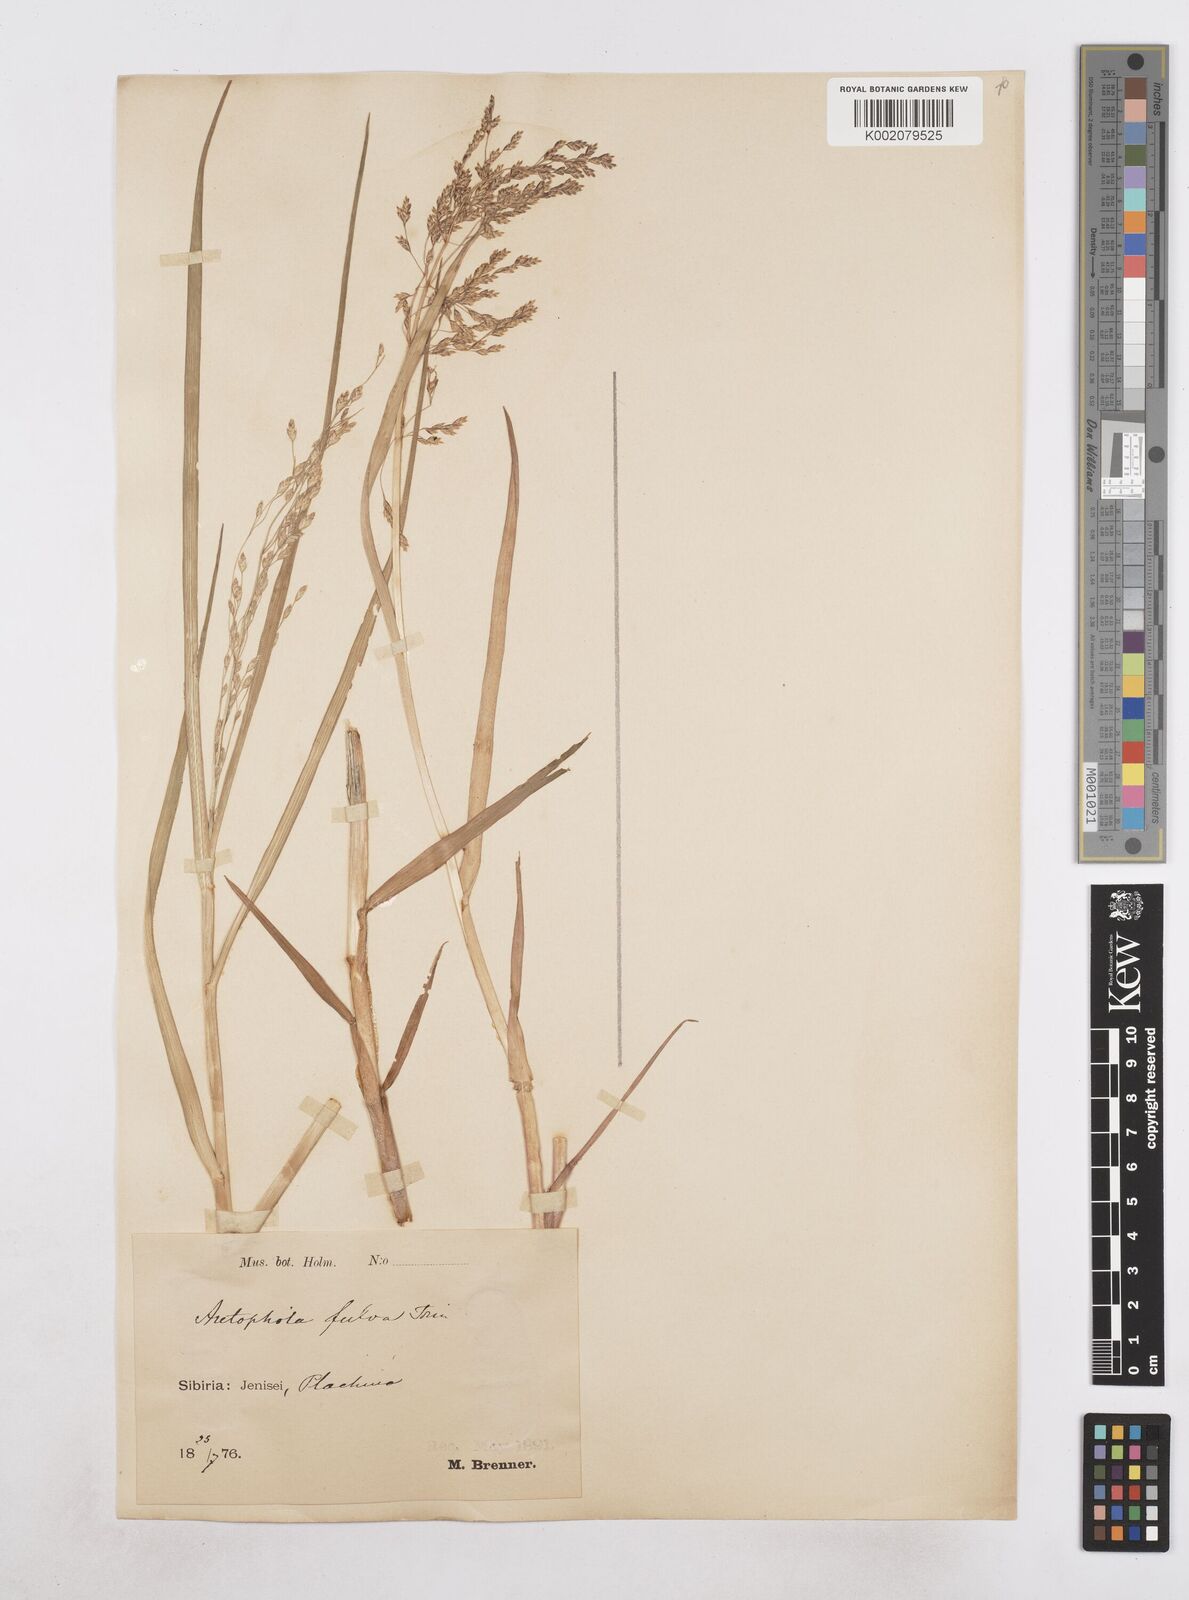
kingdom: Plantae
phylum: Tracheophyta
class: Liliopsida
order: Poales
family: Poaceae
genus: Dupontia
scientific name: Dupontia fulva
